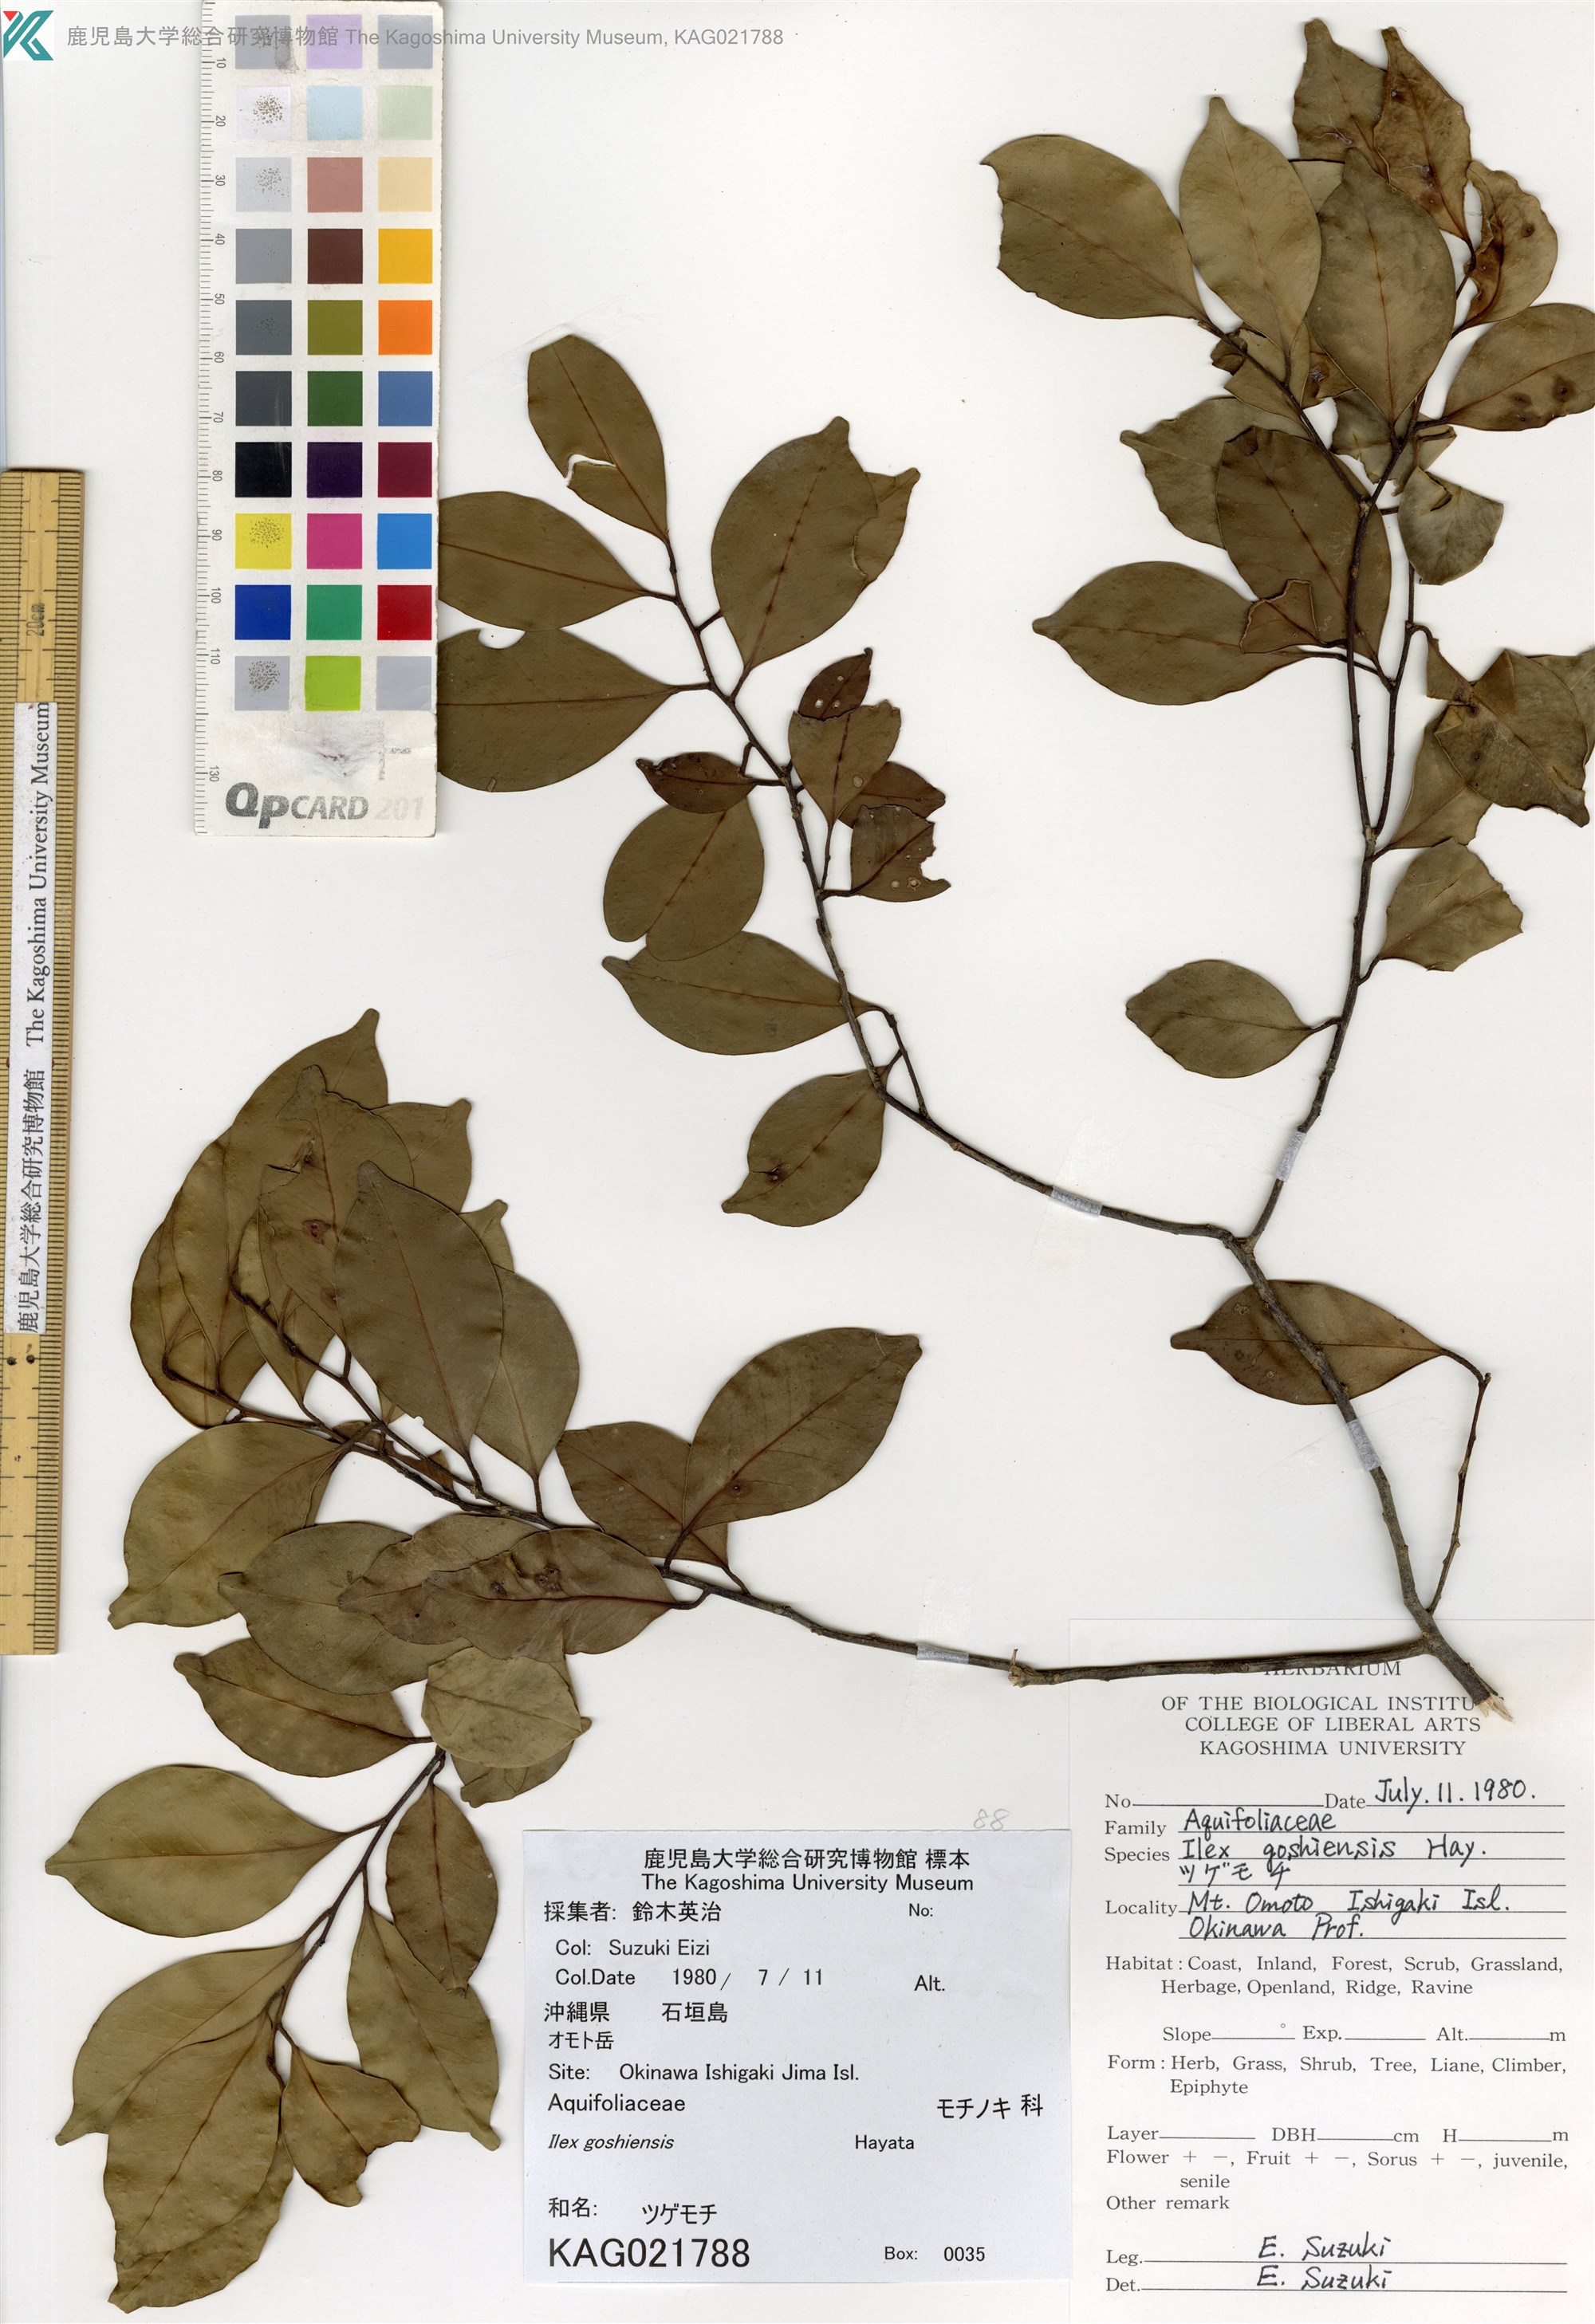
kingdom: Plantae
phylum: Tracheophyta
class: Magnoliopsida
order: Aquifoliales
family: Aquifoliaceae
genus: Ilex
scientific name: Ilex goshiensis
